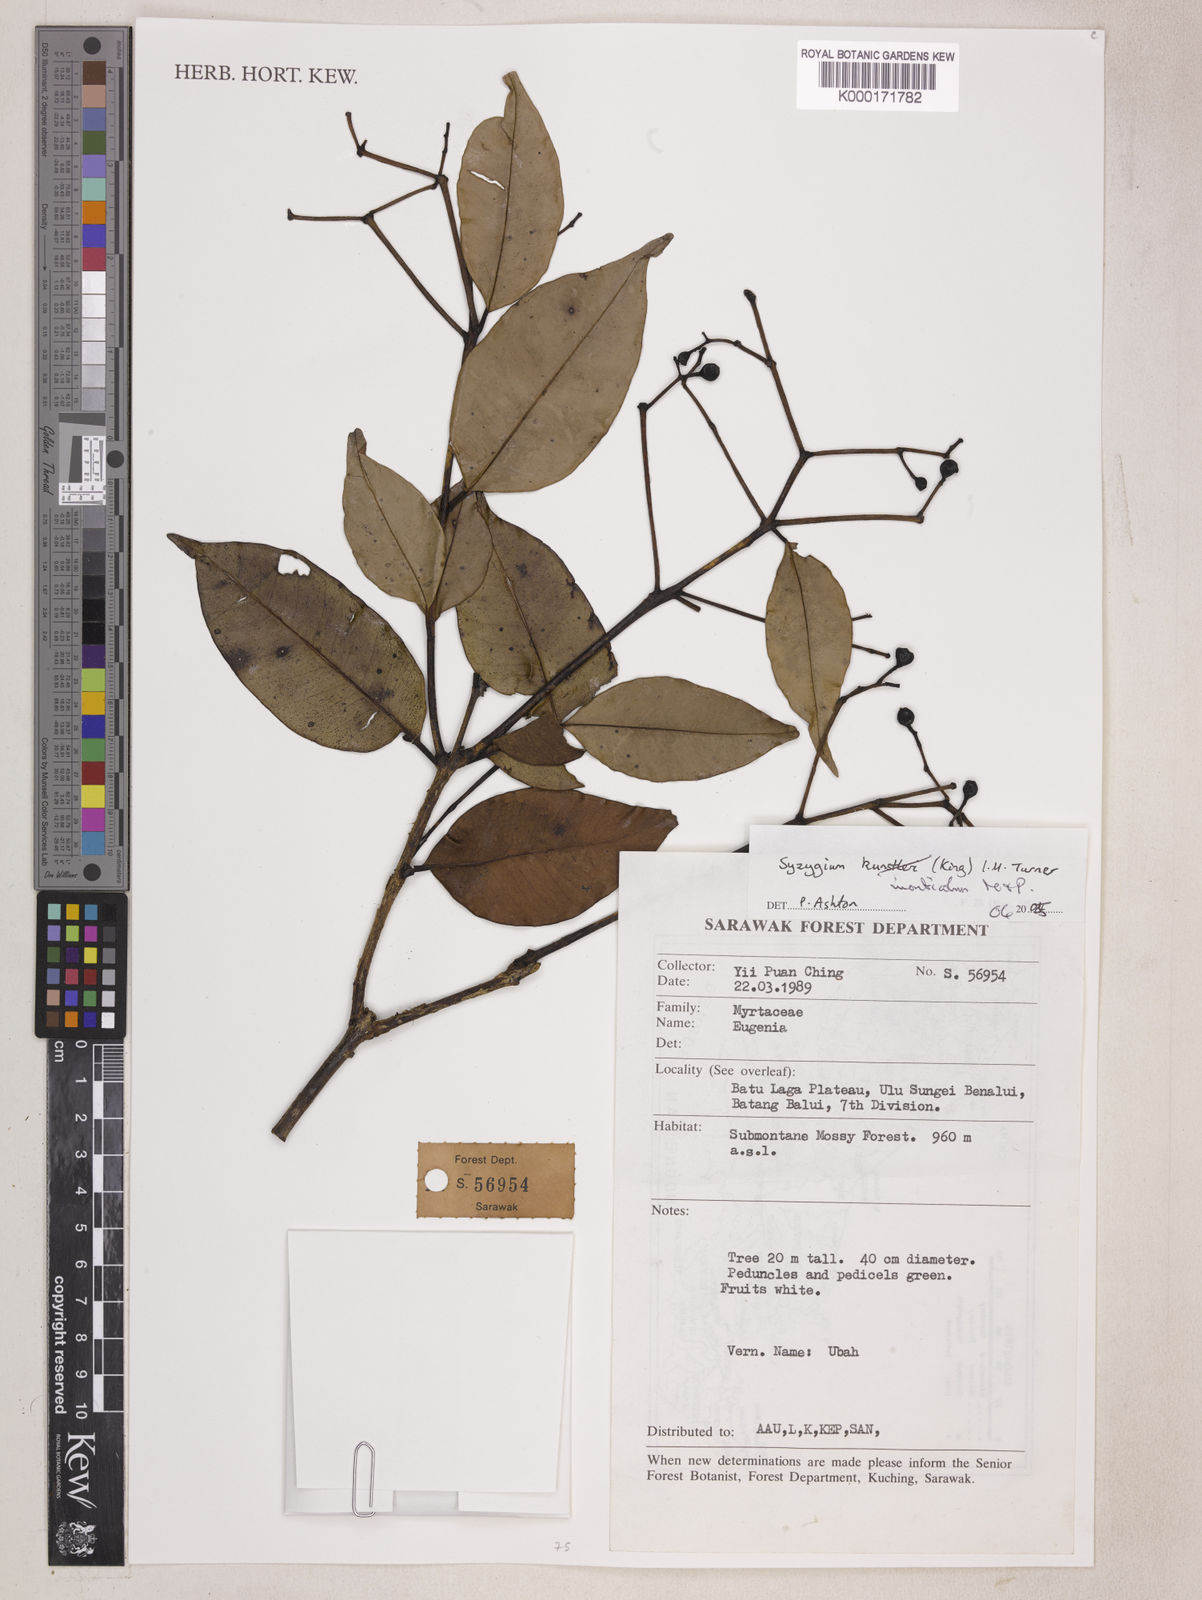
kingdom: Plantae
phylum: Tracheophyta
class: Magnoliopsida
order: Myrtales
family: Myrtaceae
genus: Syzygium
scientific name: Syzygium
